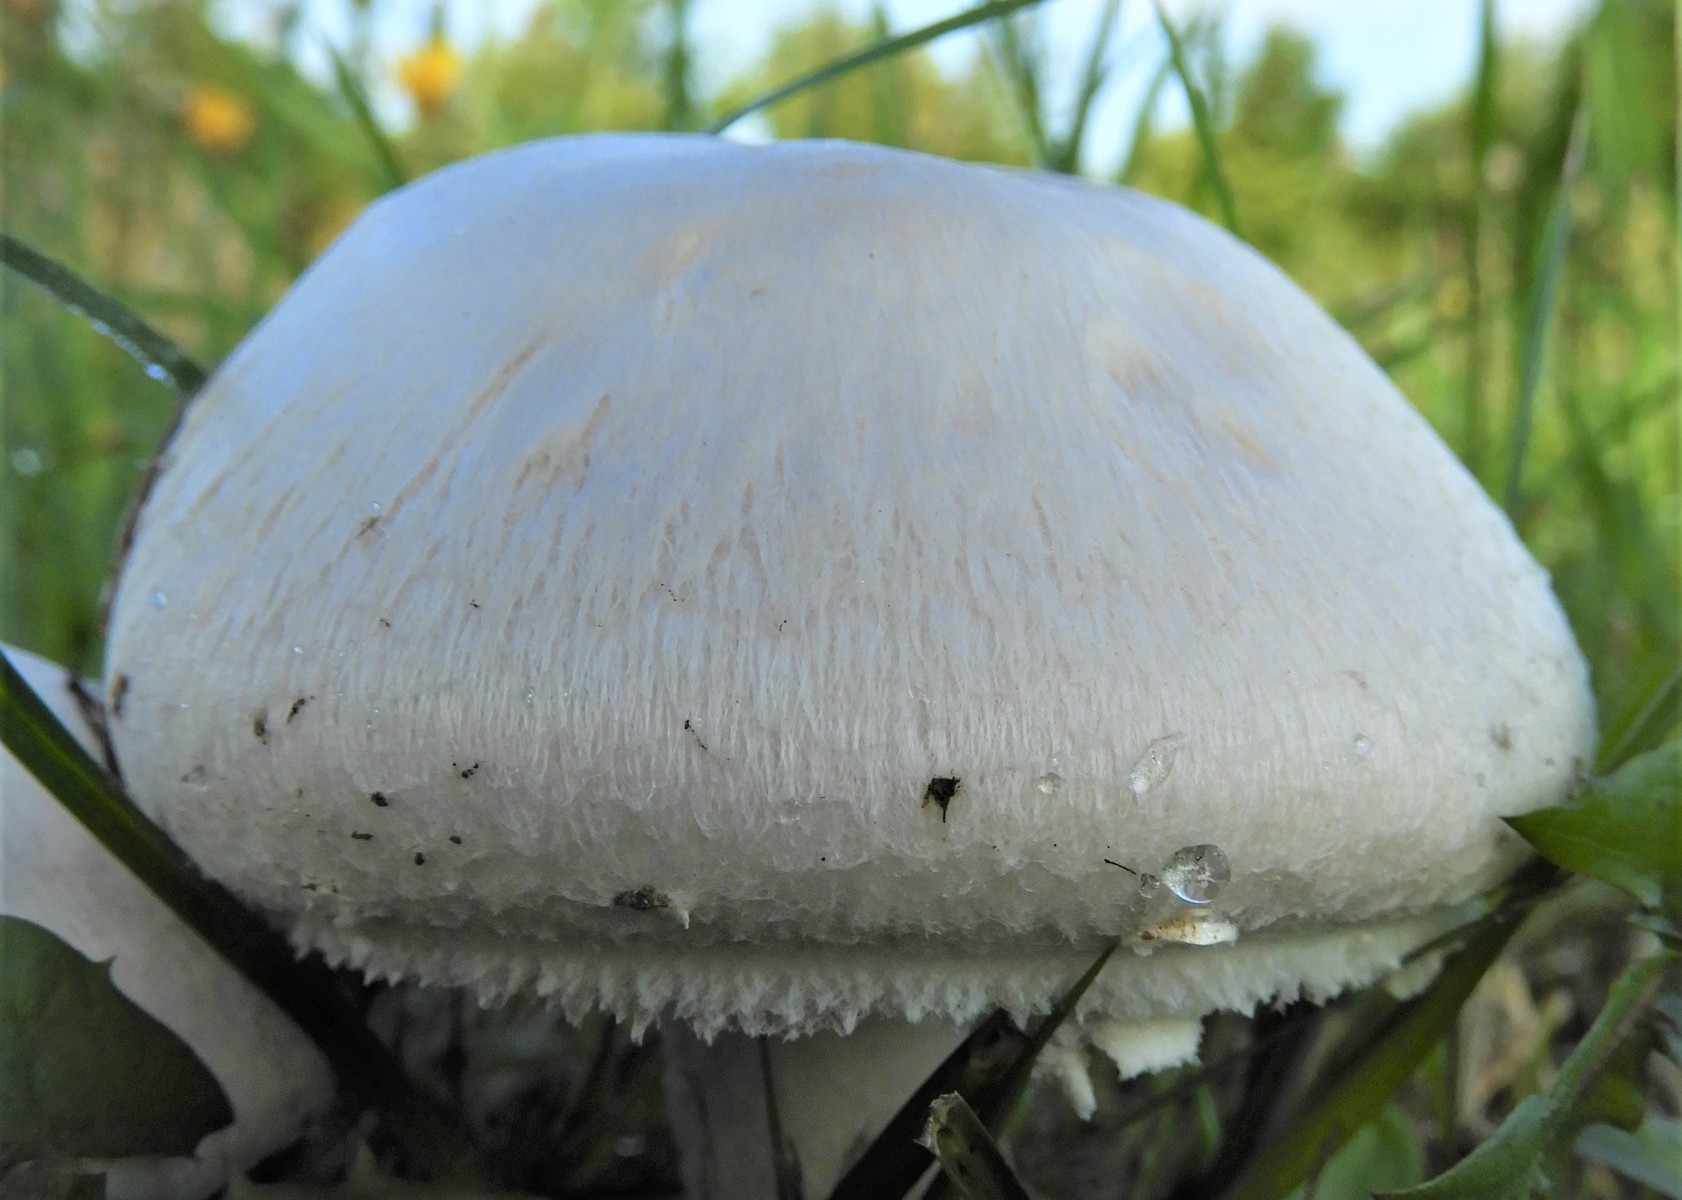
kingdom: Fungi
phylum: Basidiomycota
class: Agaricomycetes
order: Agaricales
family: Agaricaceae
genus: Agaricus
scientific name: Agaricus campestris
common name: mark-champignon
